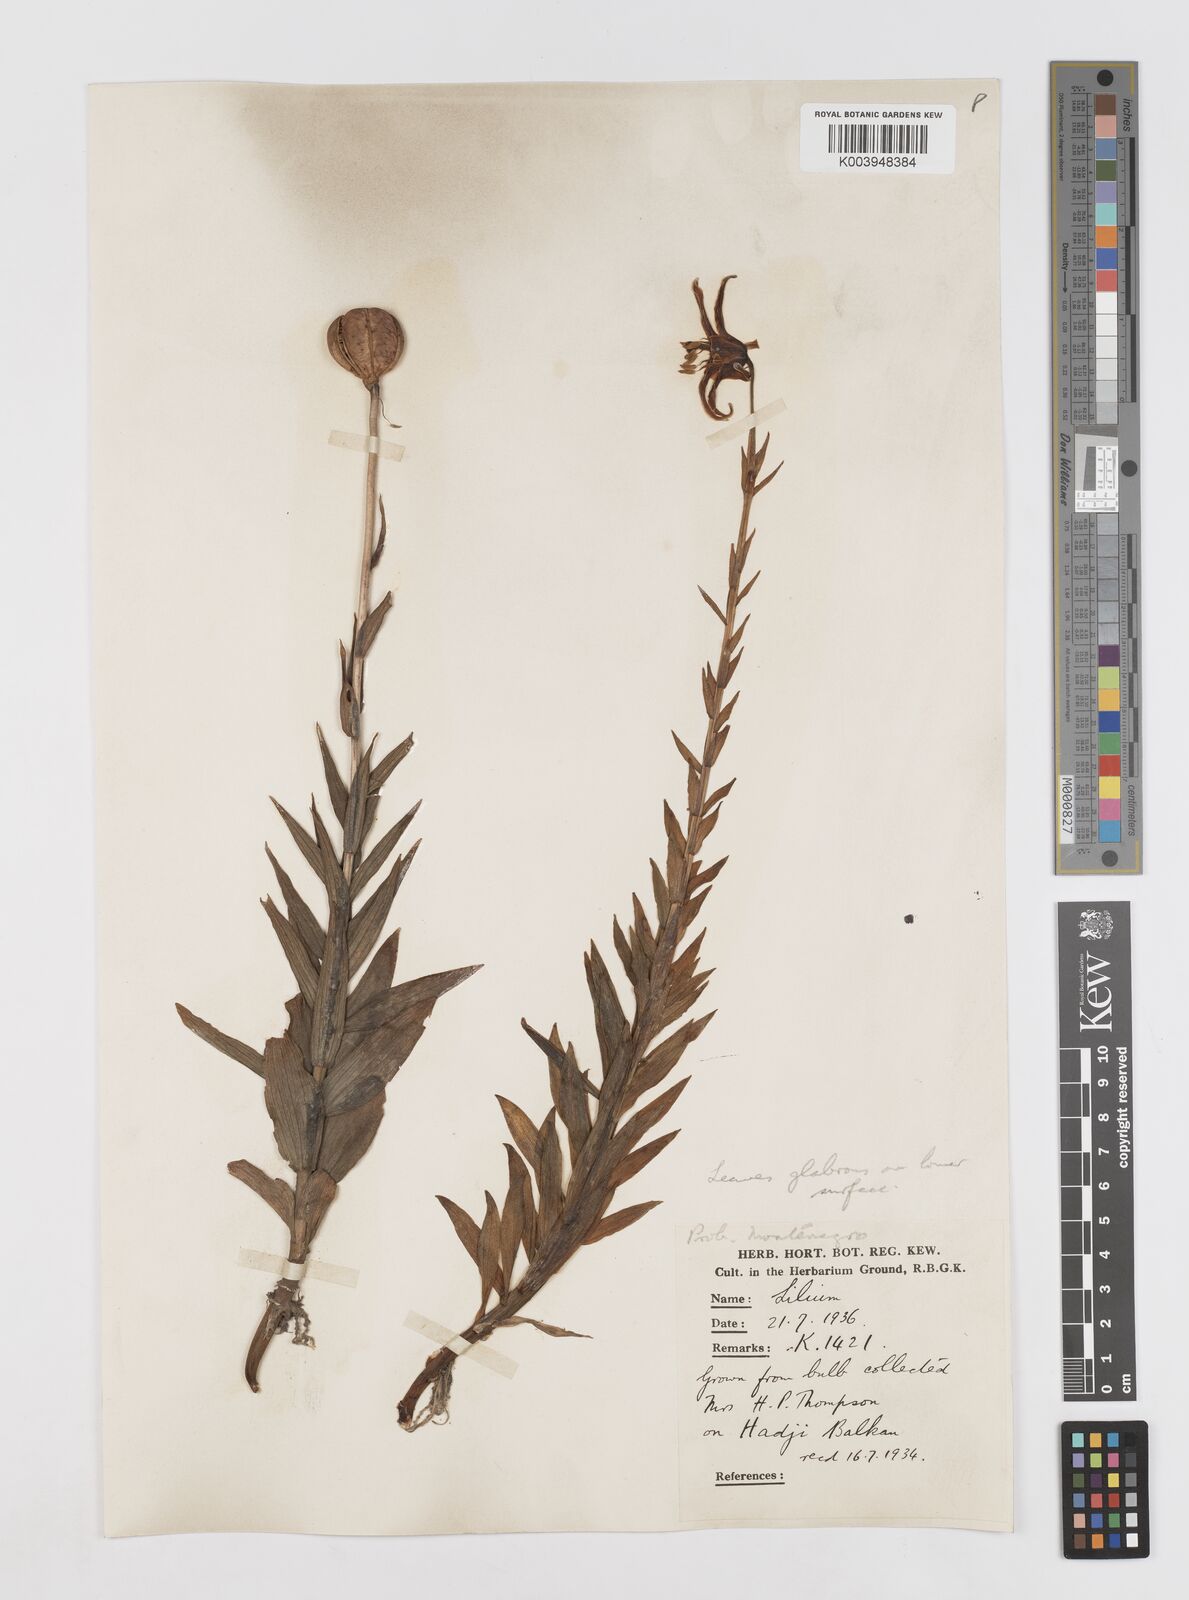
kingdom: Plantae
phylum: Tracheophyta
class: Liliopsida
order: Liliales
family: Liliaceae
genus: Lilium
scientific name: Lilium
